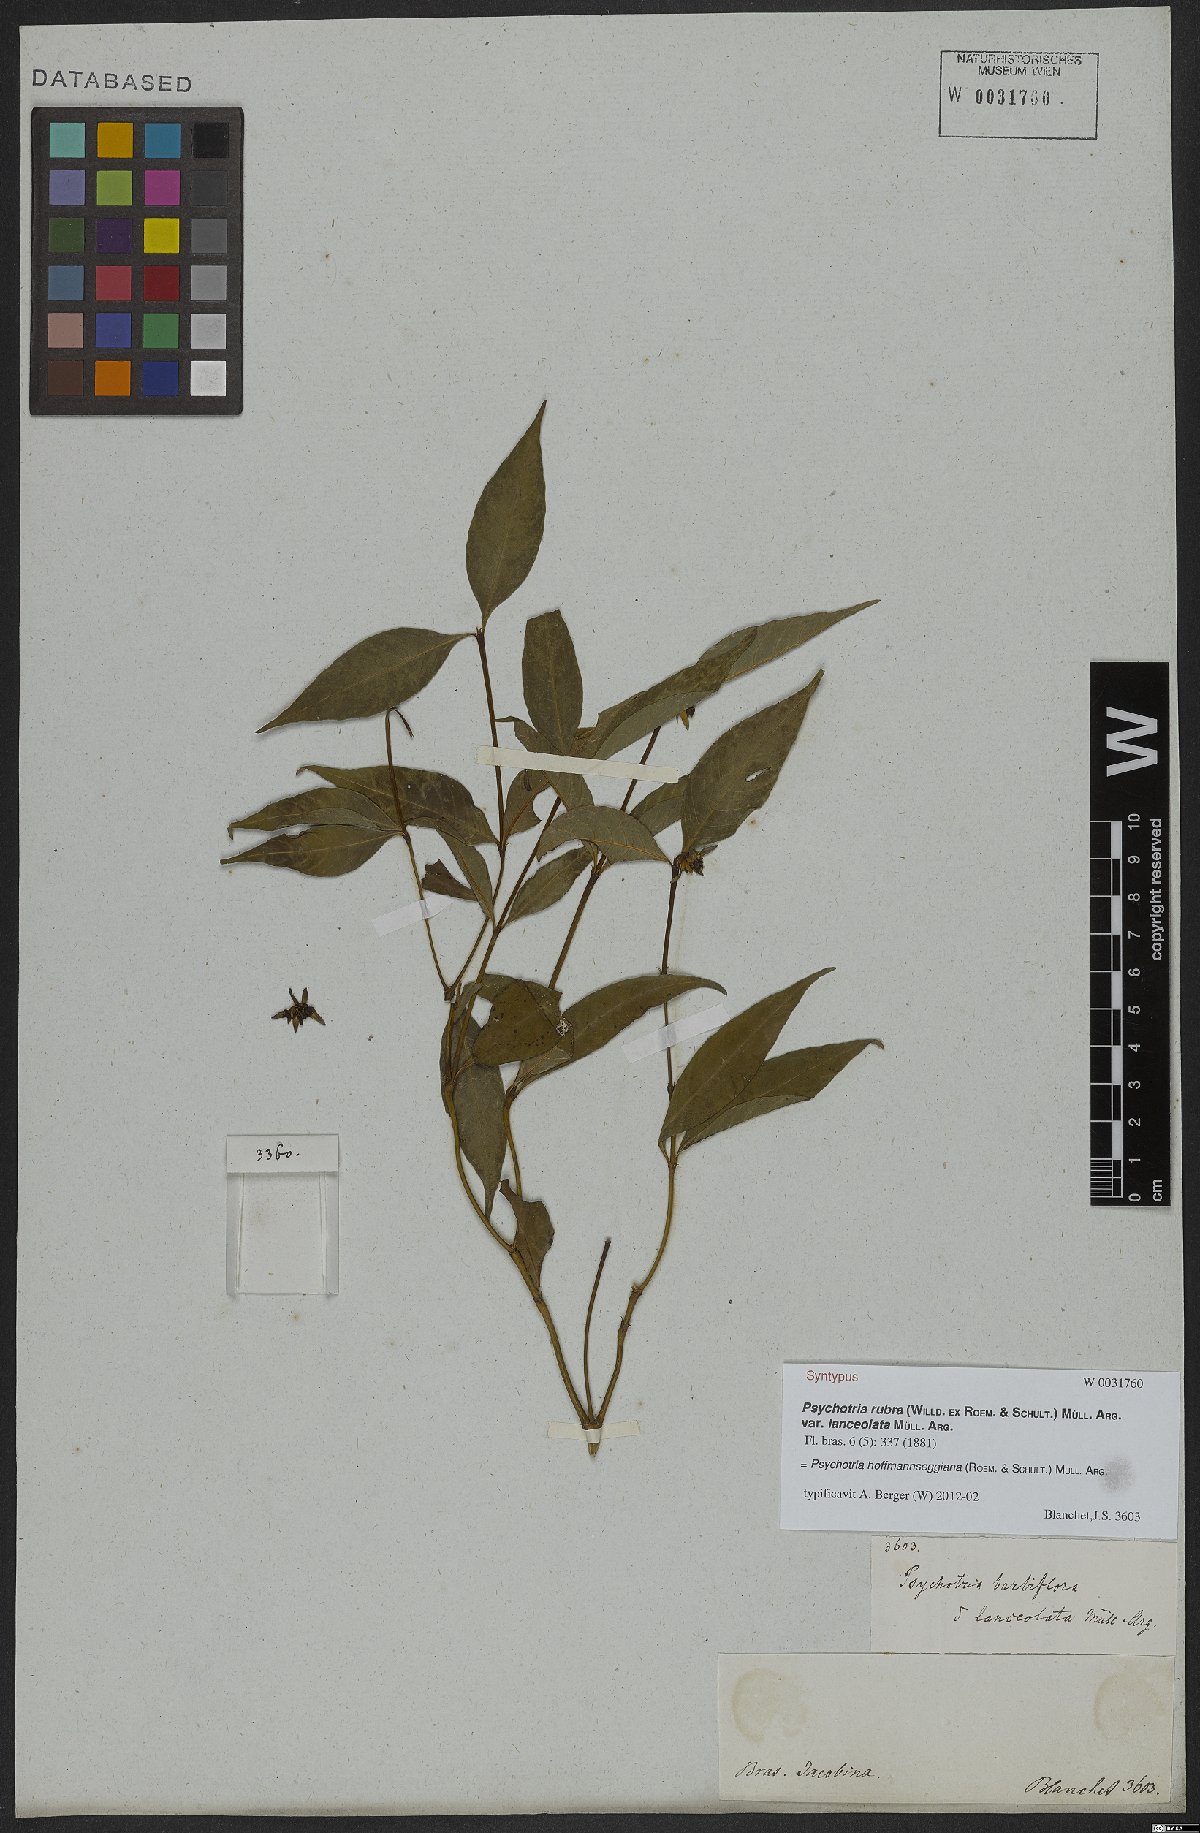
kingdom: Plantae
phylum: Tracheophyta
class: Magnoliopsida
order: Gentianales
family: Rubiaceae
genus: Palicourea
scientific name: Palicourea hoffmannseggiana
